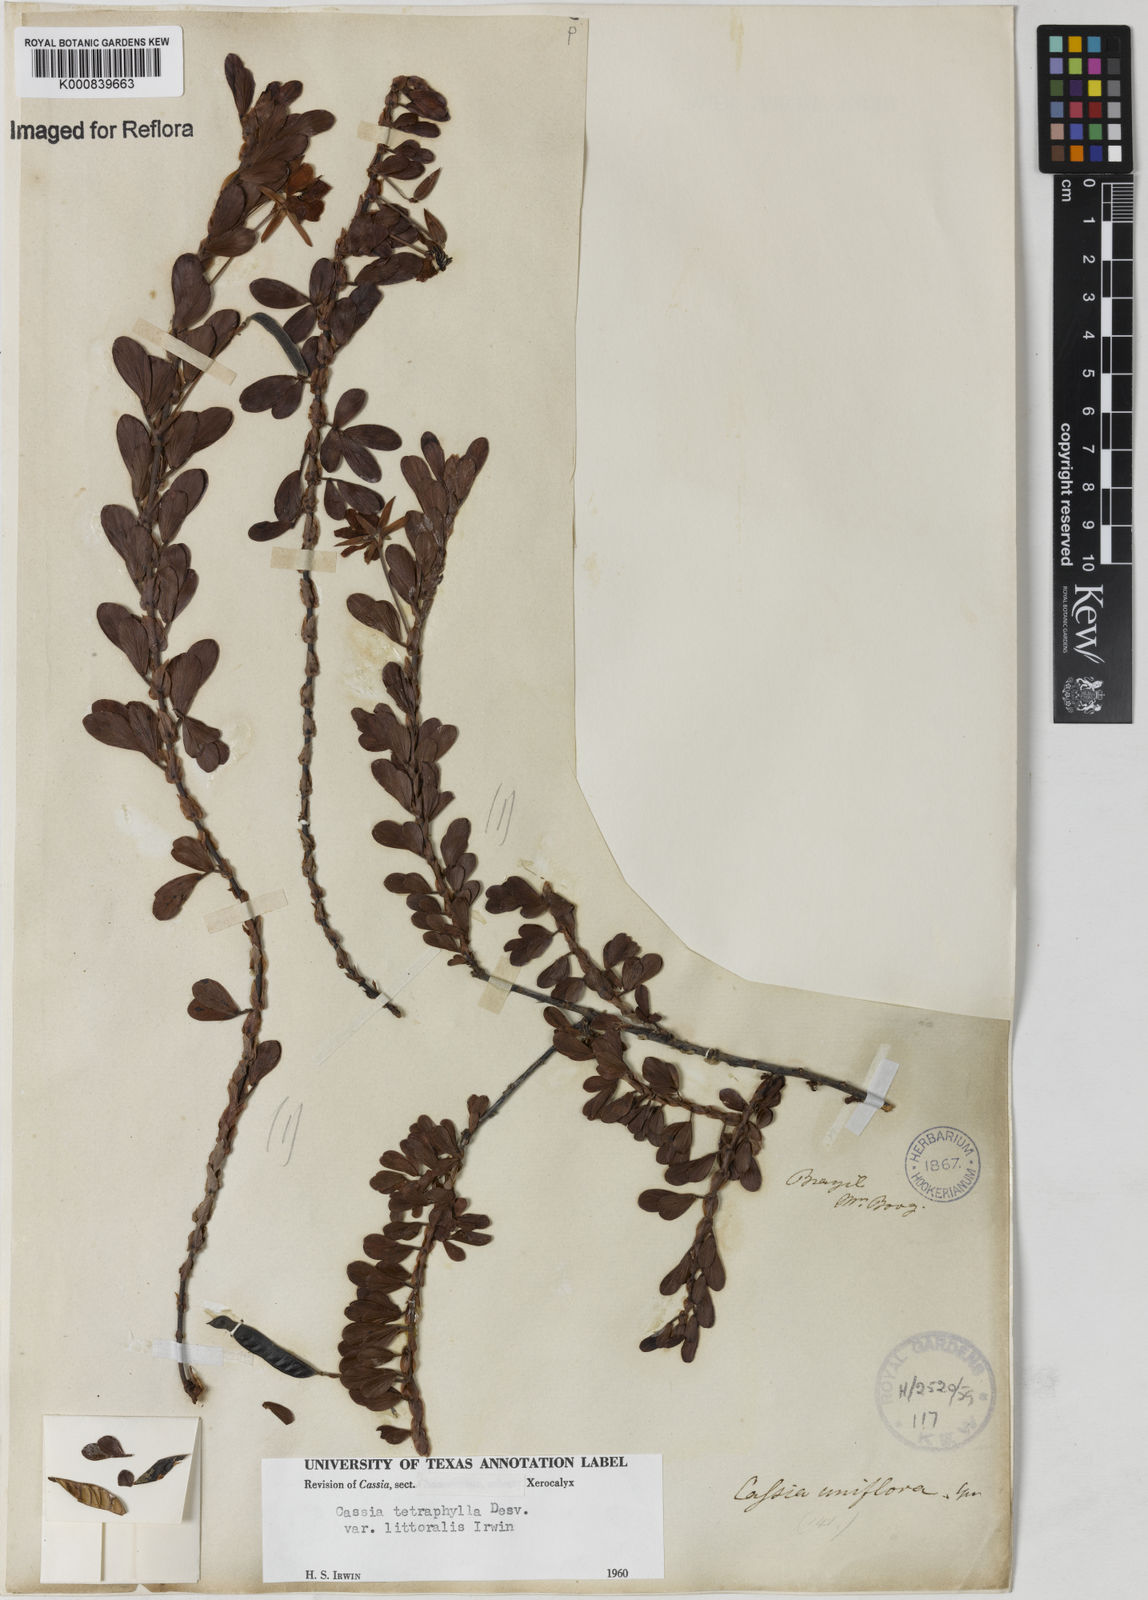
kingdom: Plantae
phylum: Tracheophyta
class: Magnoliopsida
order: Fabales
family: Fabaceae
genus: Chamaecrista
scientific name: Chamaecrista desvauxii
